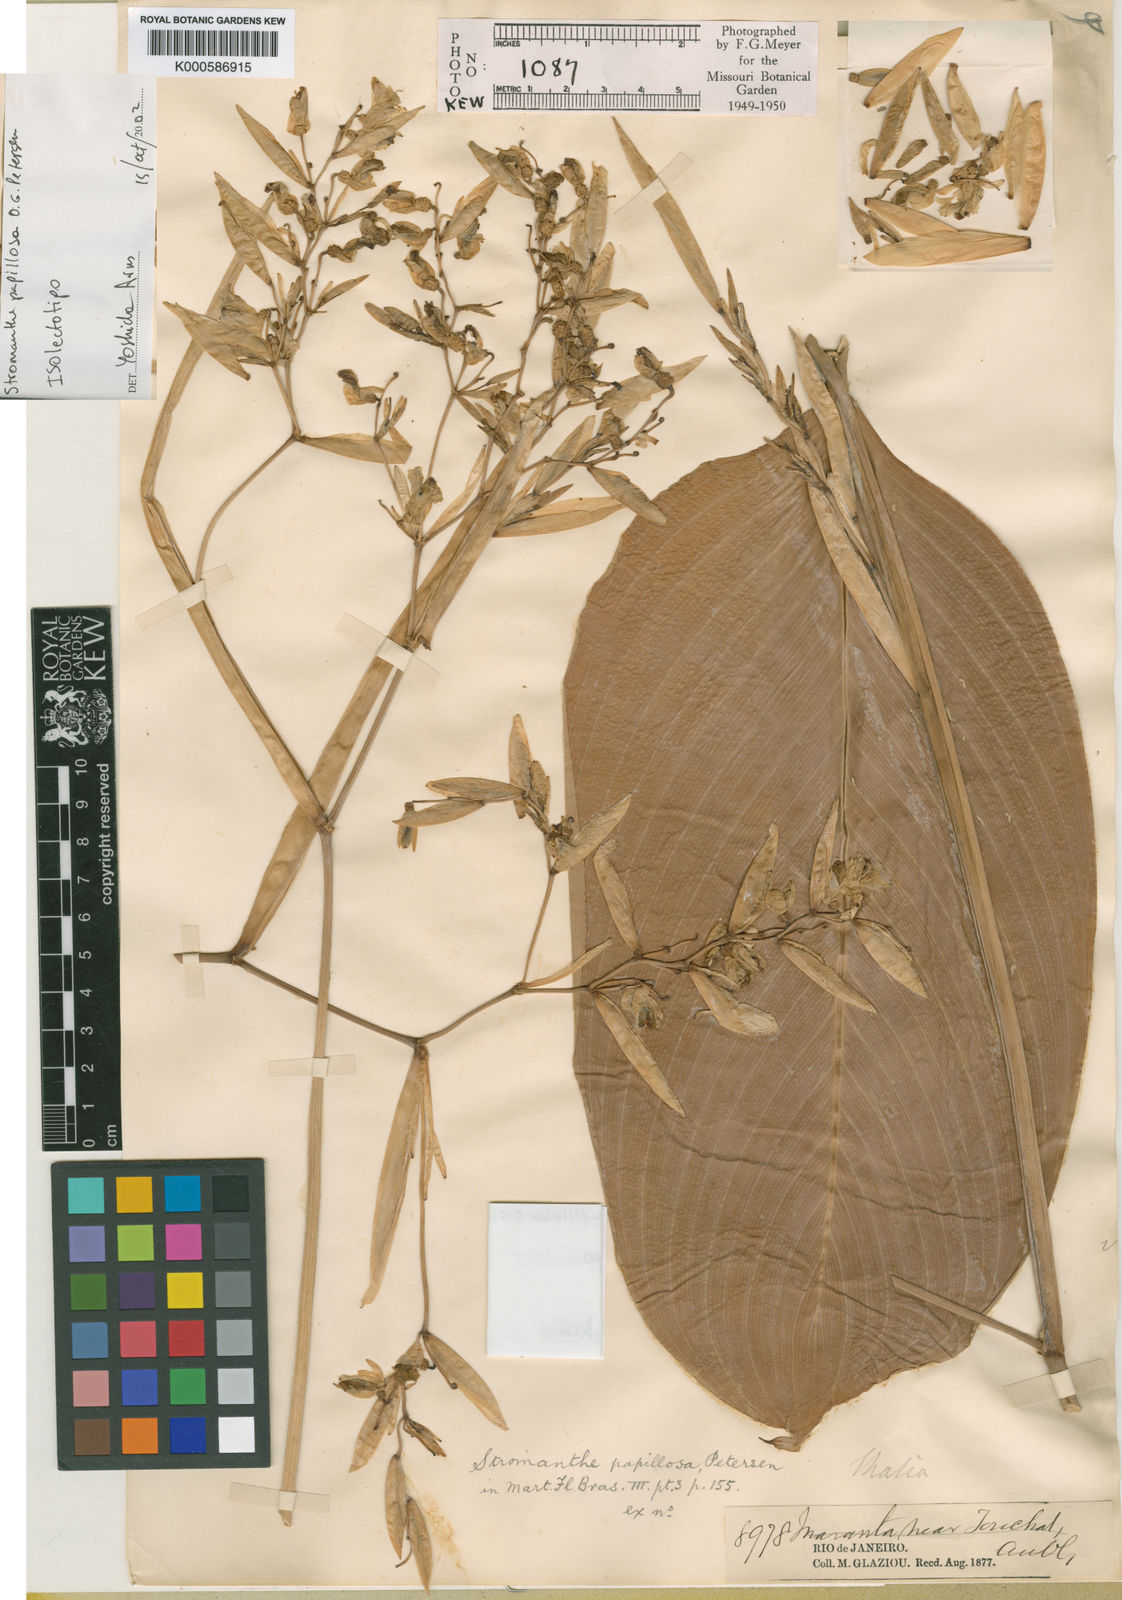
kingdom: Plantae
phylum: Tracheophyta
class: Liliopsida
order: Zingiberales
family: Marantaceae
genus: Stromanthe
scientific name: Stromanthe papillosa
